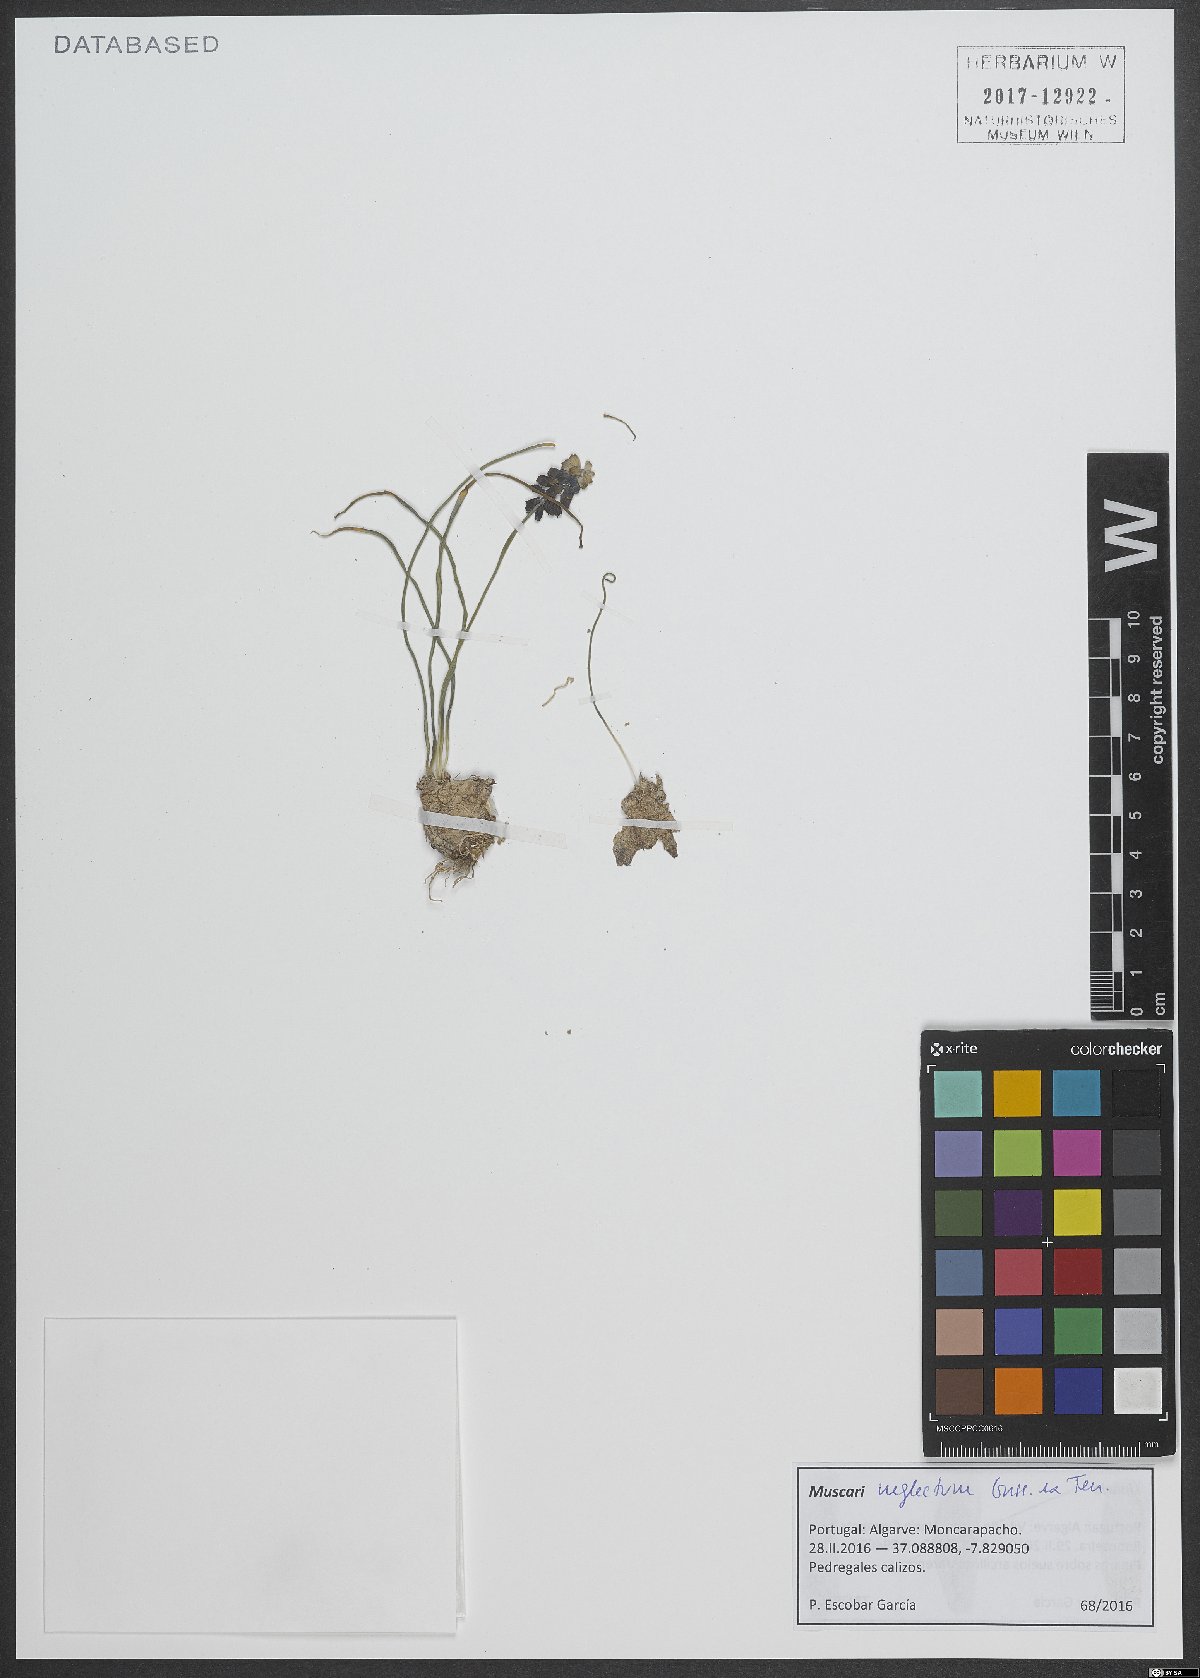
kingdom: Plantae
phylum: Tracheophyta
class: Liliopsida
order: Asparagales
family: Asparagaceae
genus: Muscari
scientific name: Muscari neglectum
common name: Grape-hyacinth
